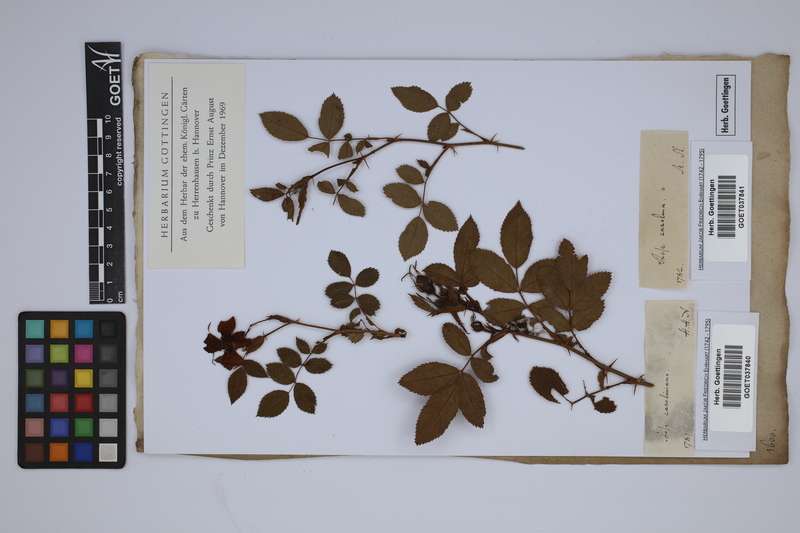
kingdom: Plantae
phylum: Tracheophyta
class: Magnoliopsida
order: Rosales
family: Rosaceae
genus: Rosa
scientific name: Rosa carolina
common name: Pasture rose
